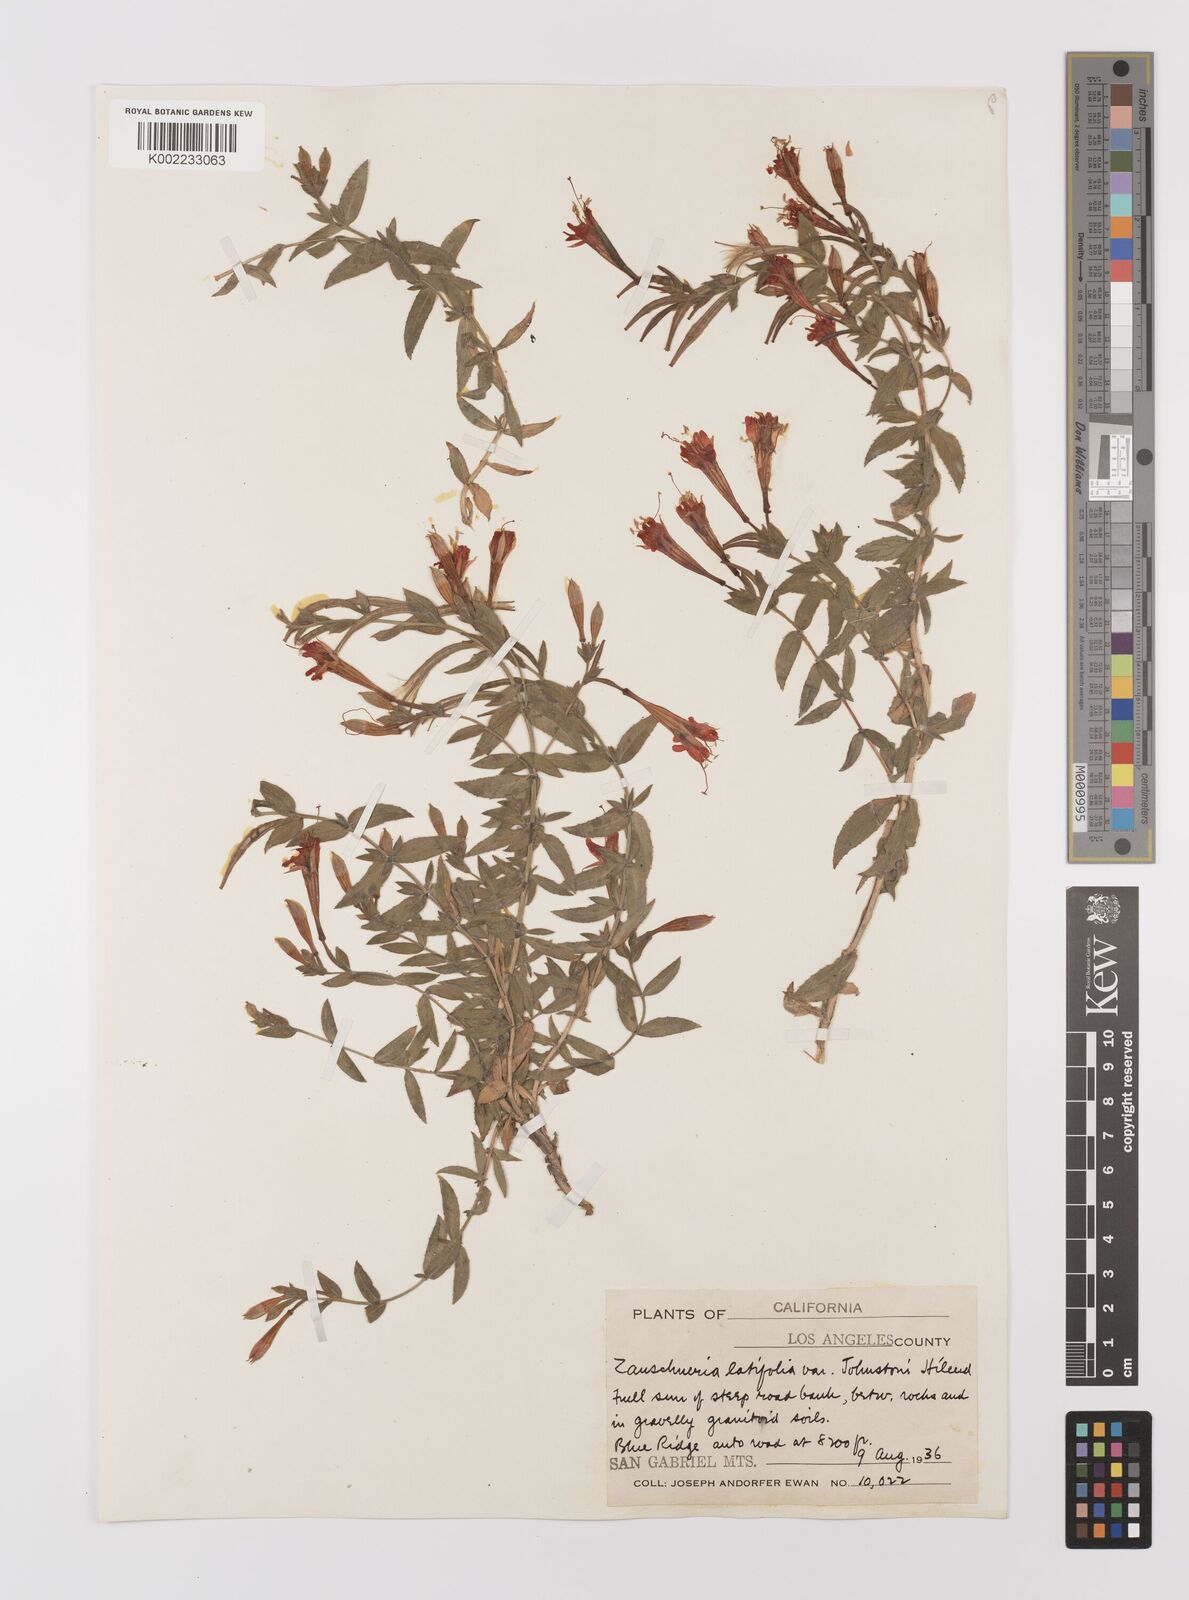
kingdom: Plantae
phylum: Tracheophyta
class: Magnoliopsida
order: Myrtales
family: Onagraceae
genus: Epilobium
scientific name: Epilobium
